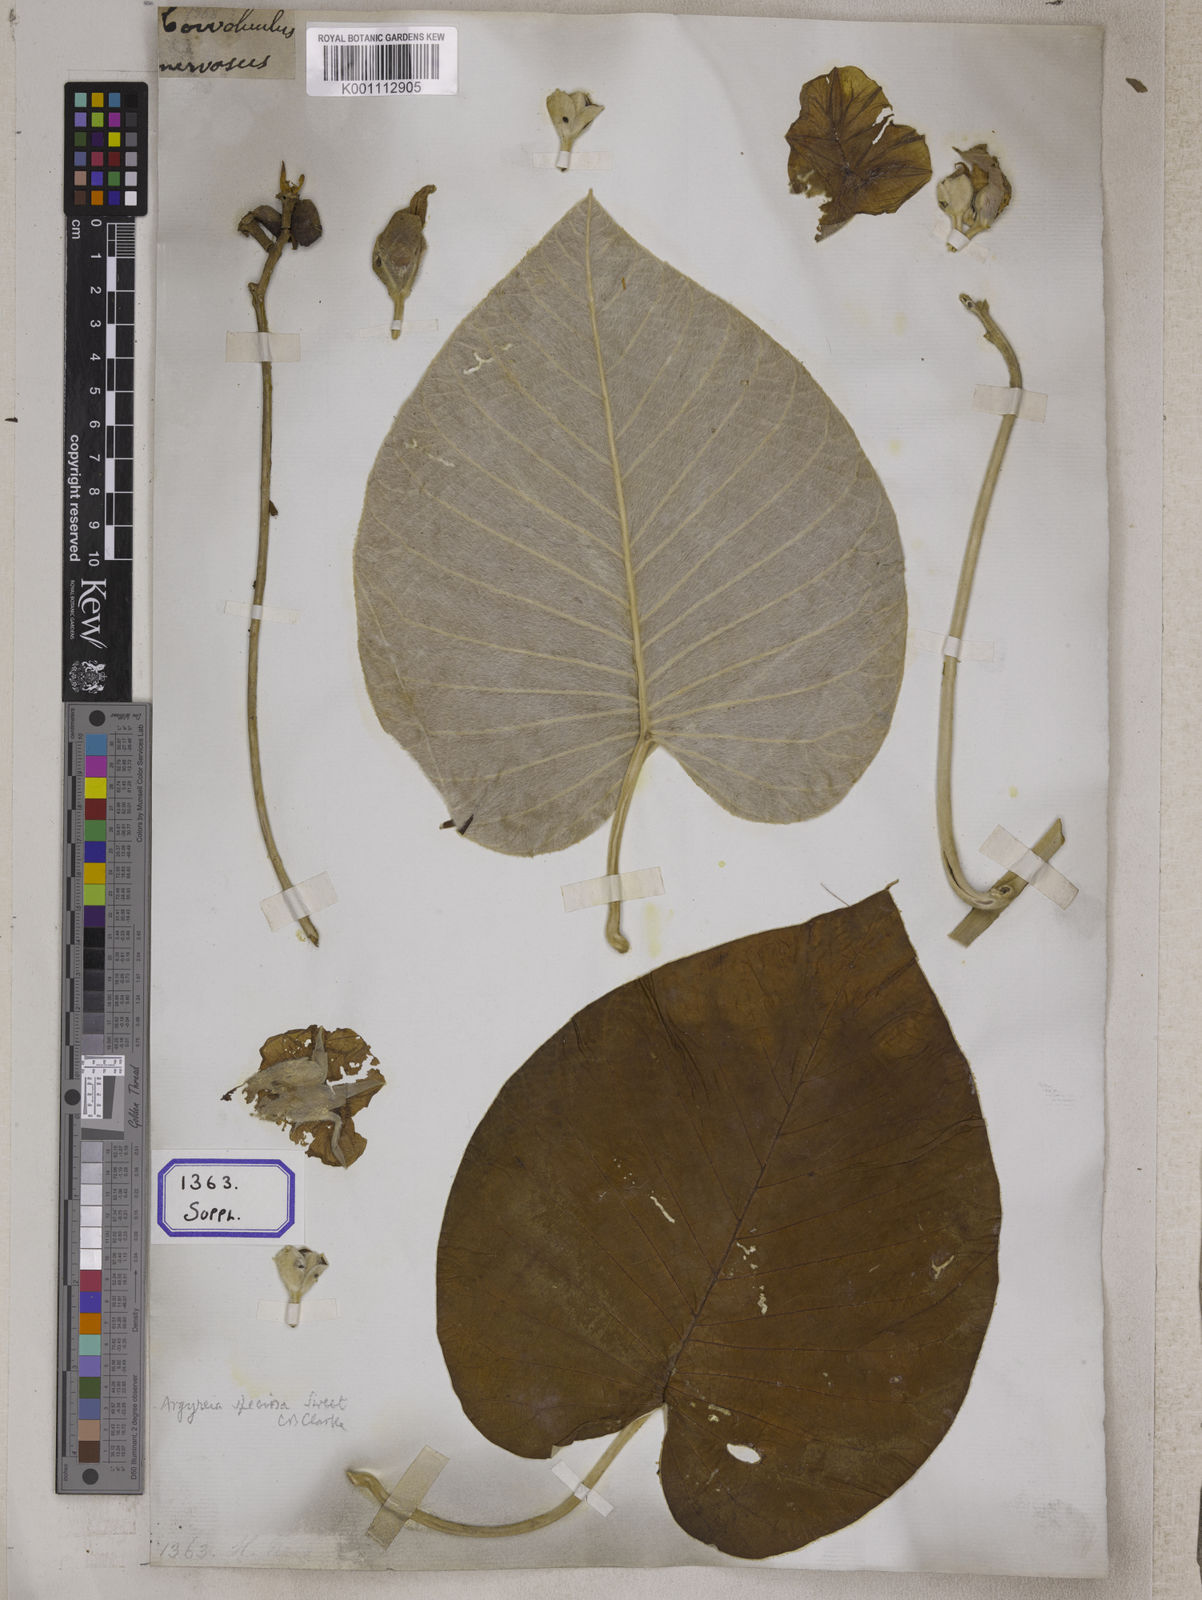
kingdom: Plantae
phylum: Tracheophyta
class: Magnoliopsida
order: Solanales
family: Convolvulaceae
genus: Convolvulus
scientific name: Convolvulus
